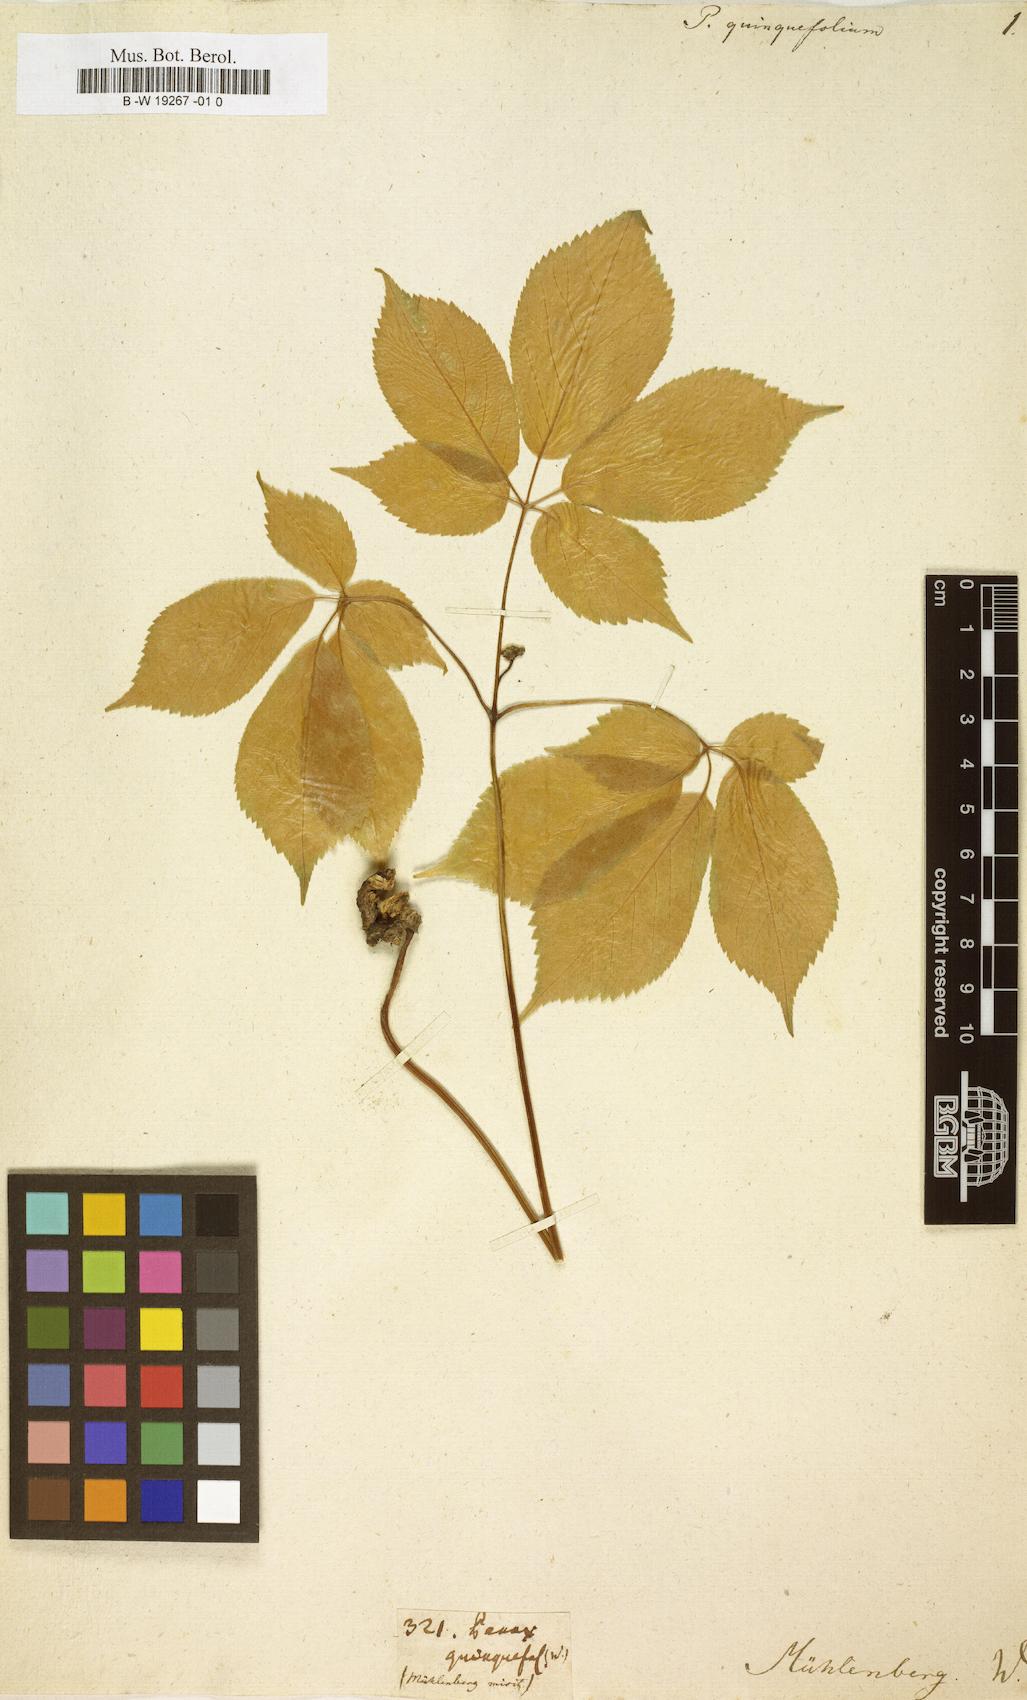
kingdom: Plantae
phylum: Tracheophyta
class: Magnoliopsida
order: Apiales
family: Araliaceae
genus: Panax
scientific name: Panax quinquefolius
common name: American ginseng
